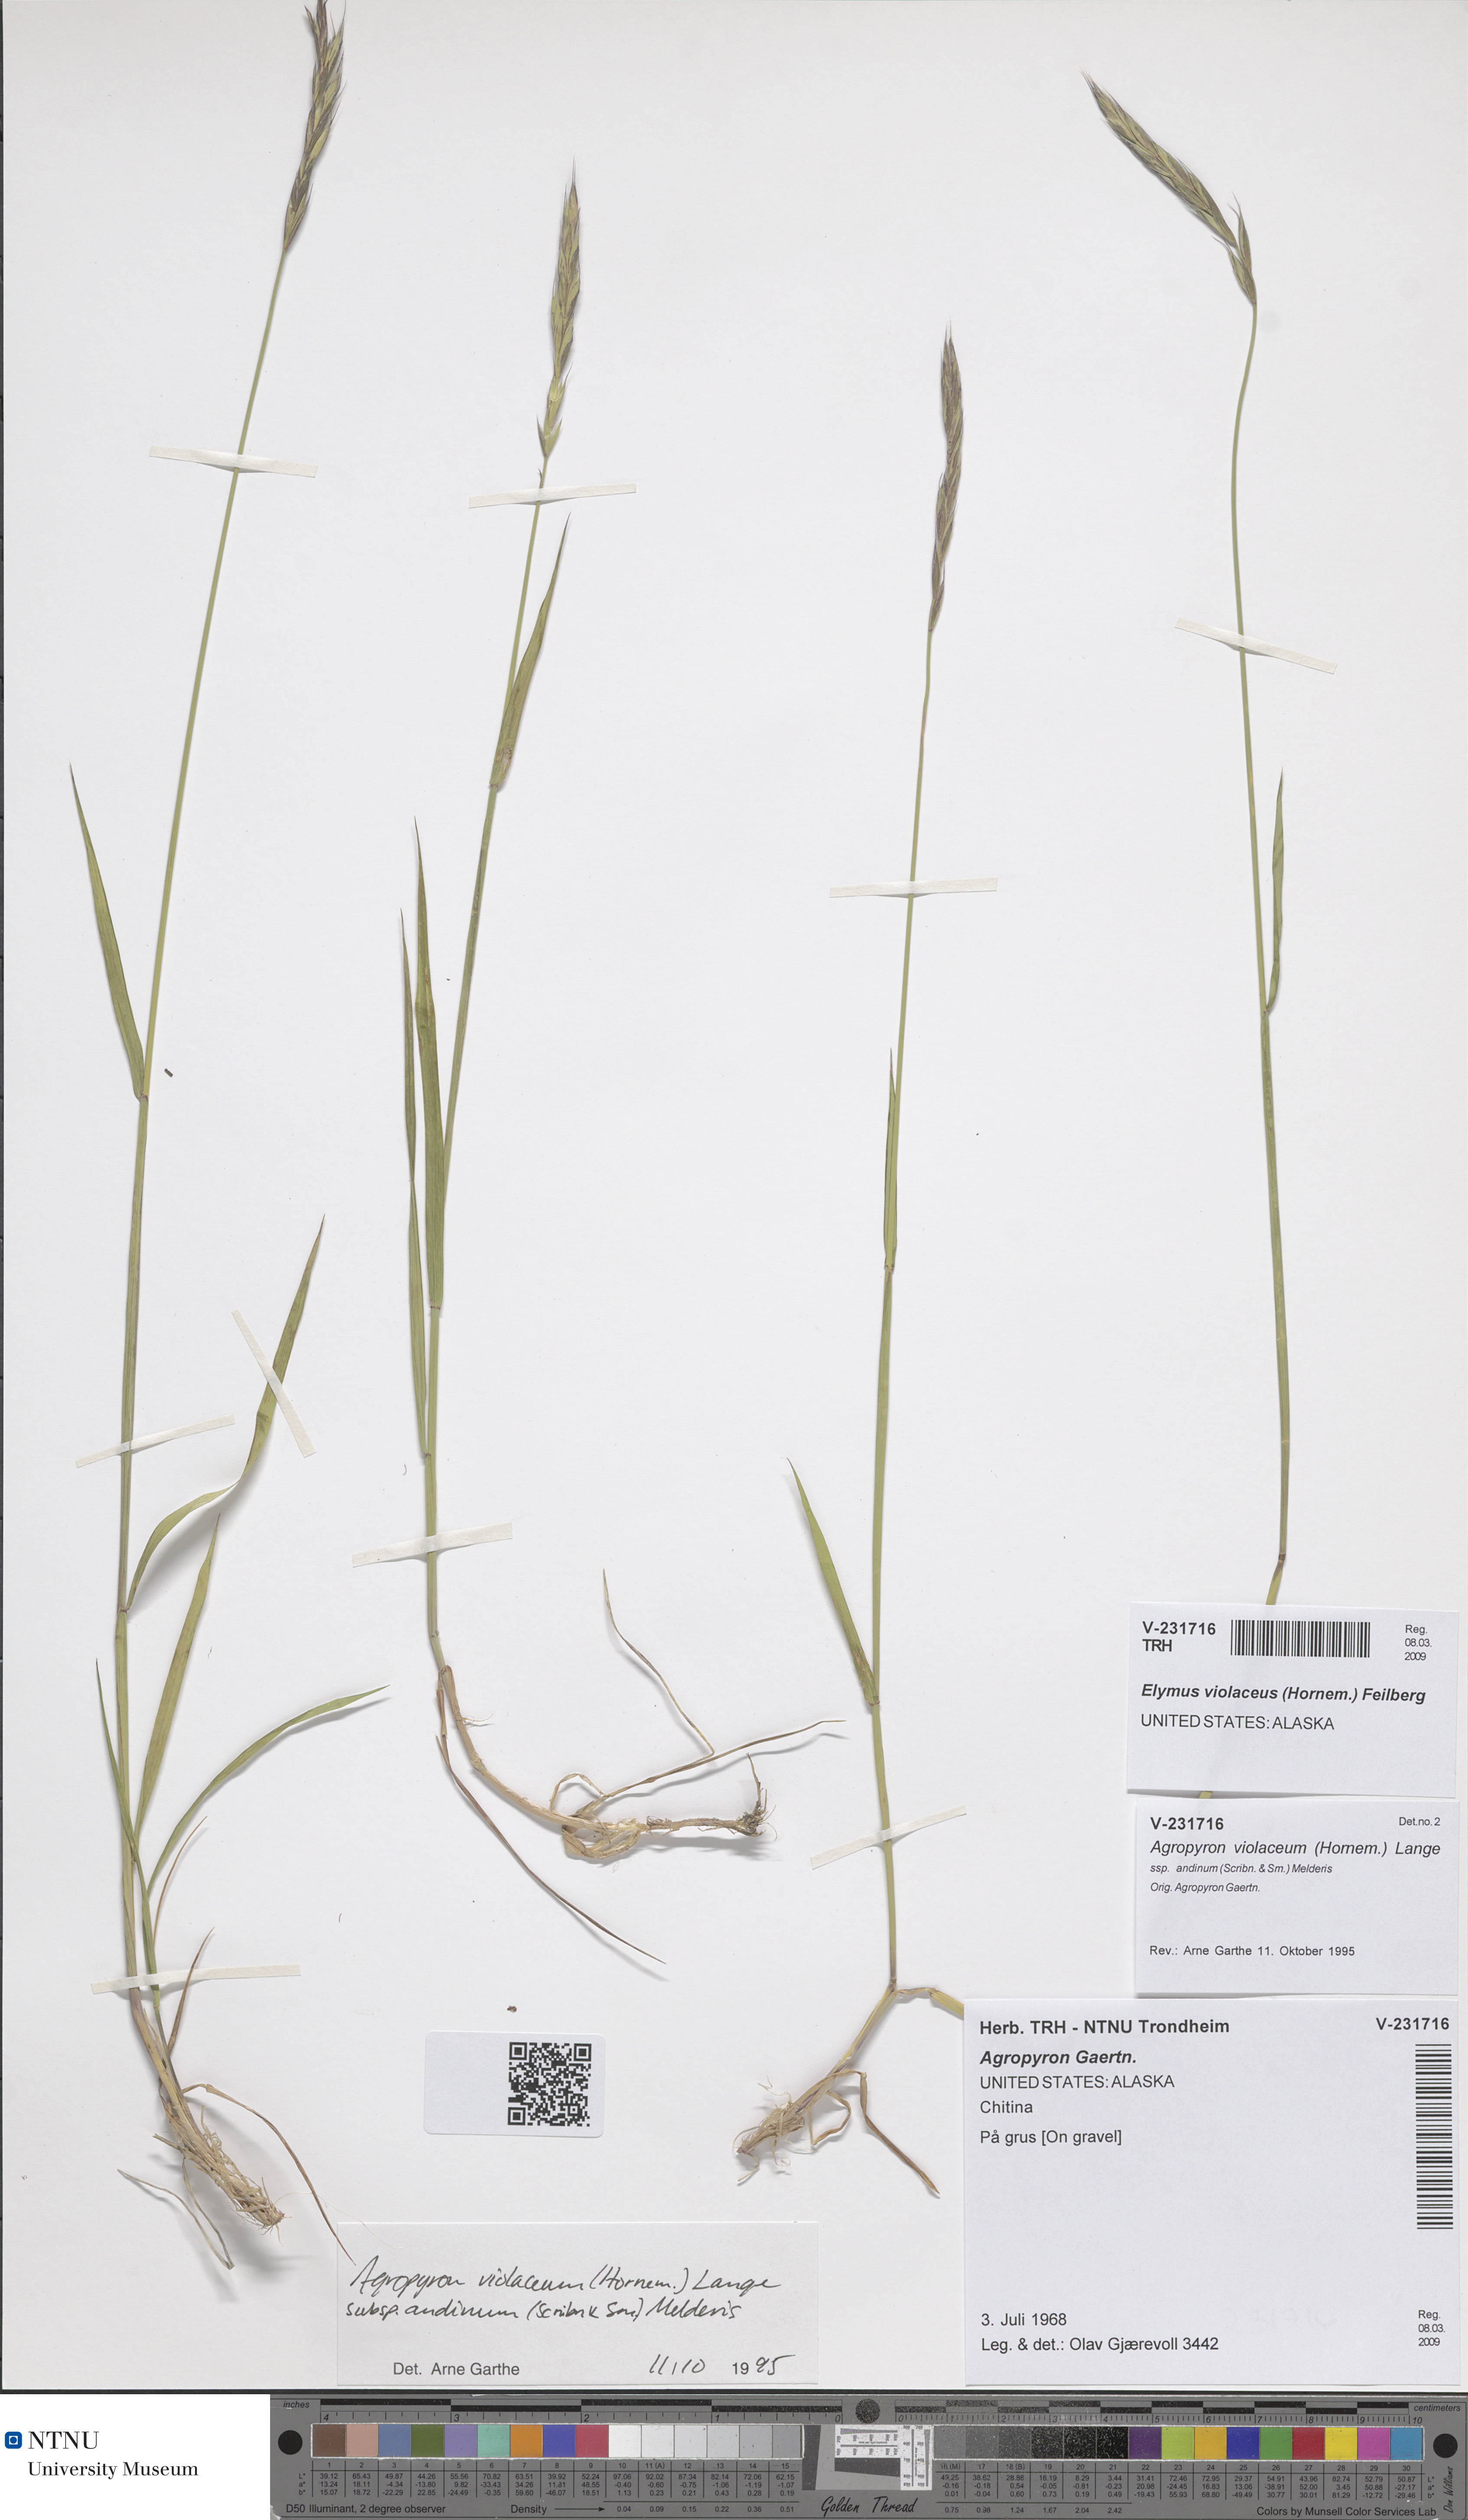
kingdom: Plantae
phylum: Tracheophyta
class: Liliopsida
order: Poales
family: Poaceae
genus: Elymus
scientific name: Elymus violaceus
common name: Arctic wheatgrass
